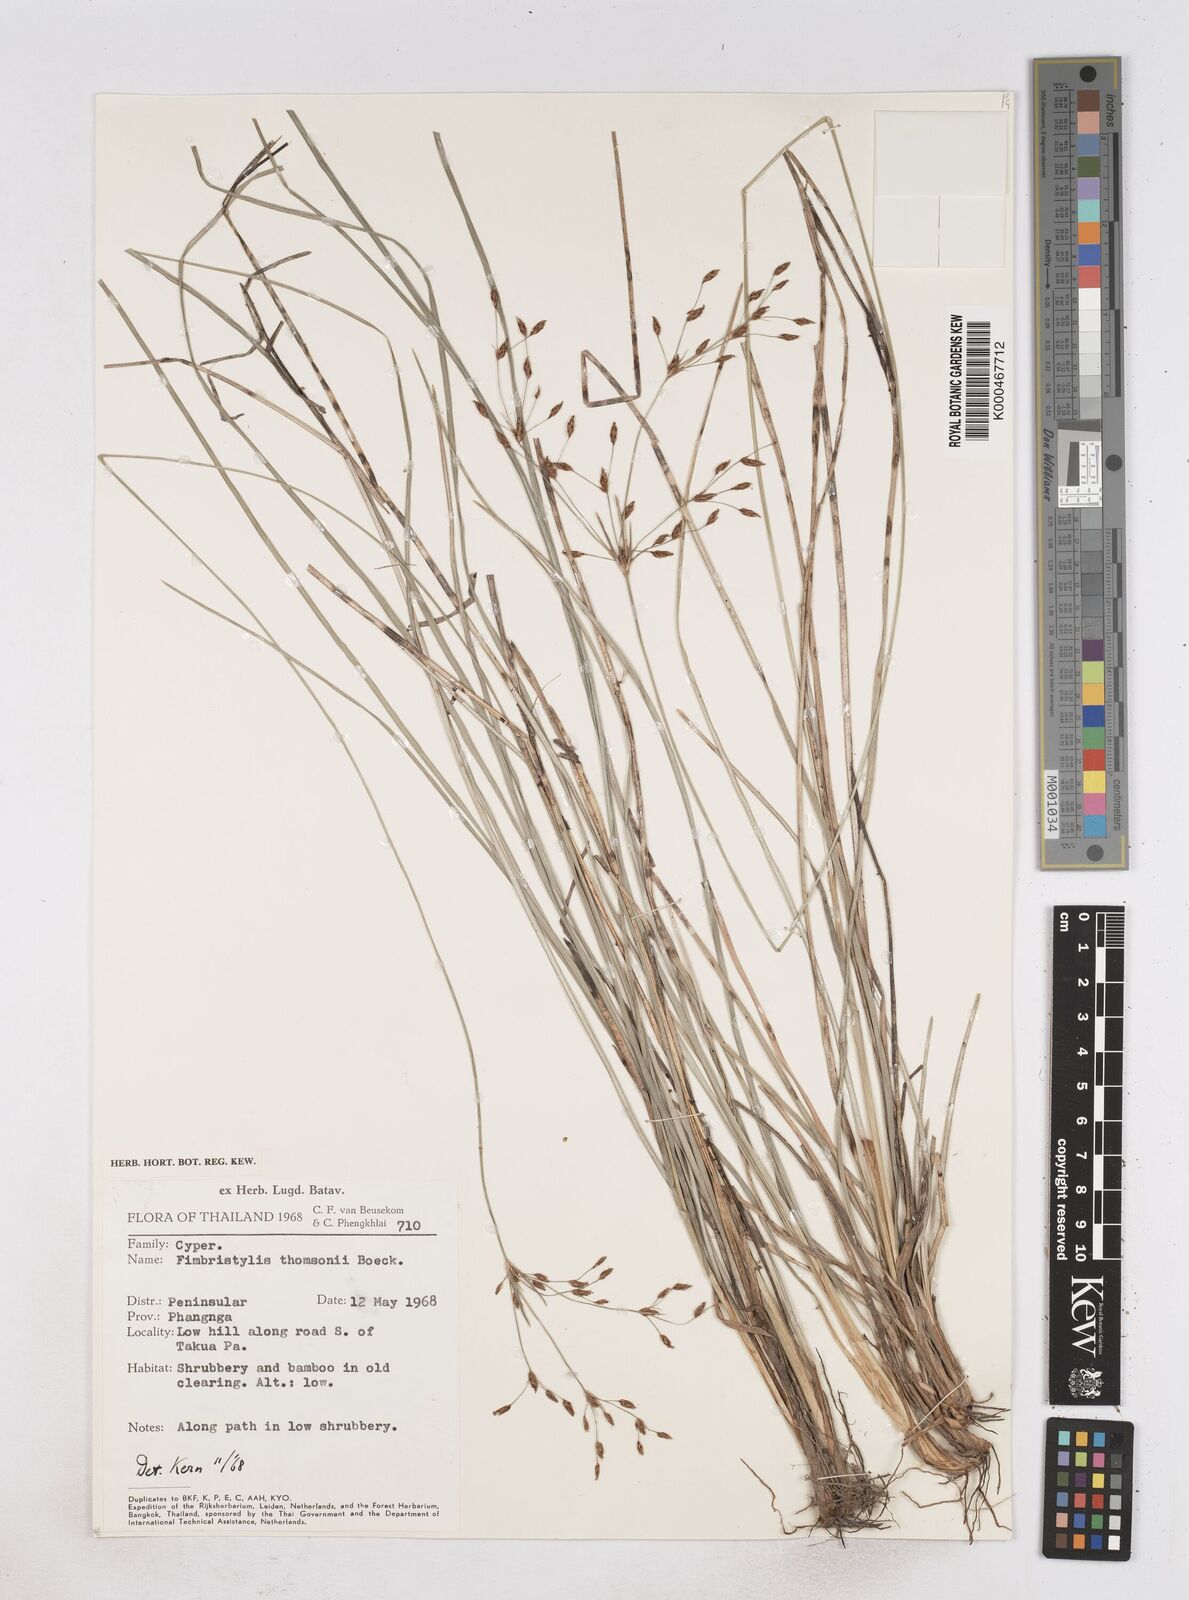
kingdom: Plantae
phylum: Tracheophyta
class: Liliopsida
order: Poales
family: Cyperaceae
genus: Fimbristylis
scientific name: Fimbristylis thomsonii
